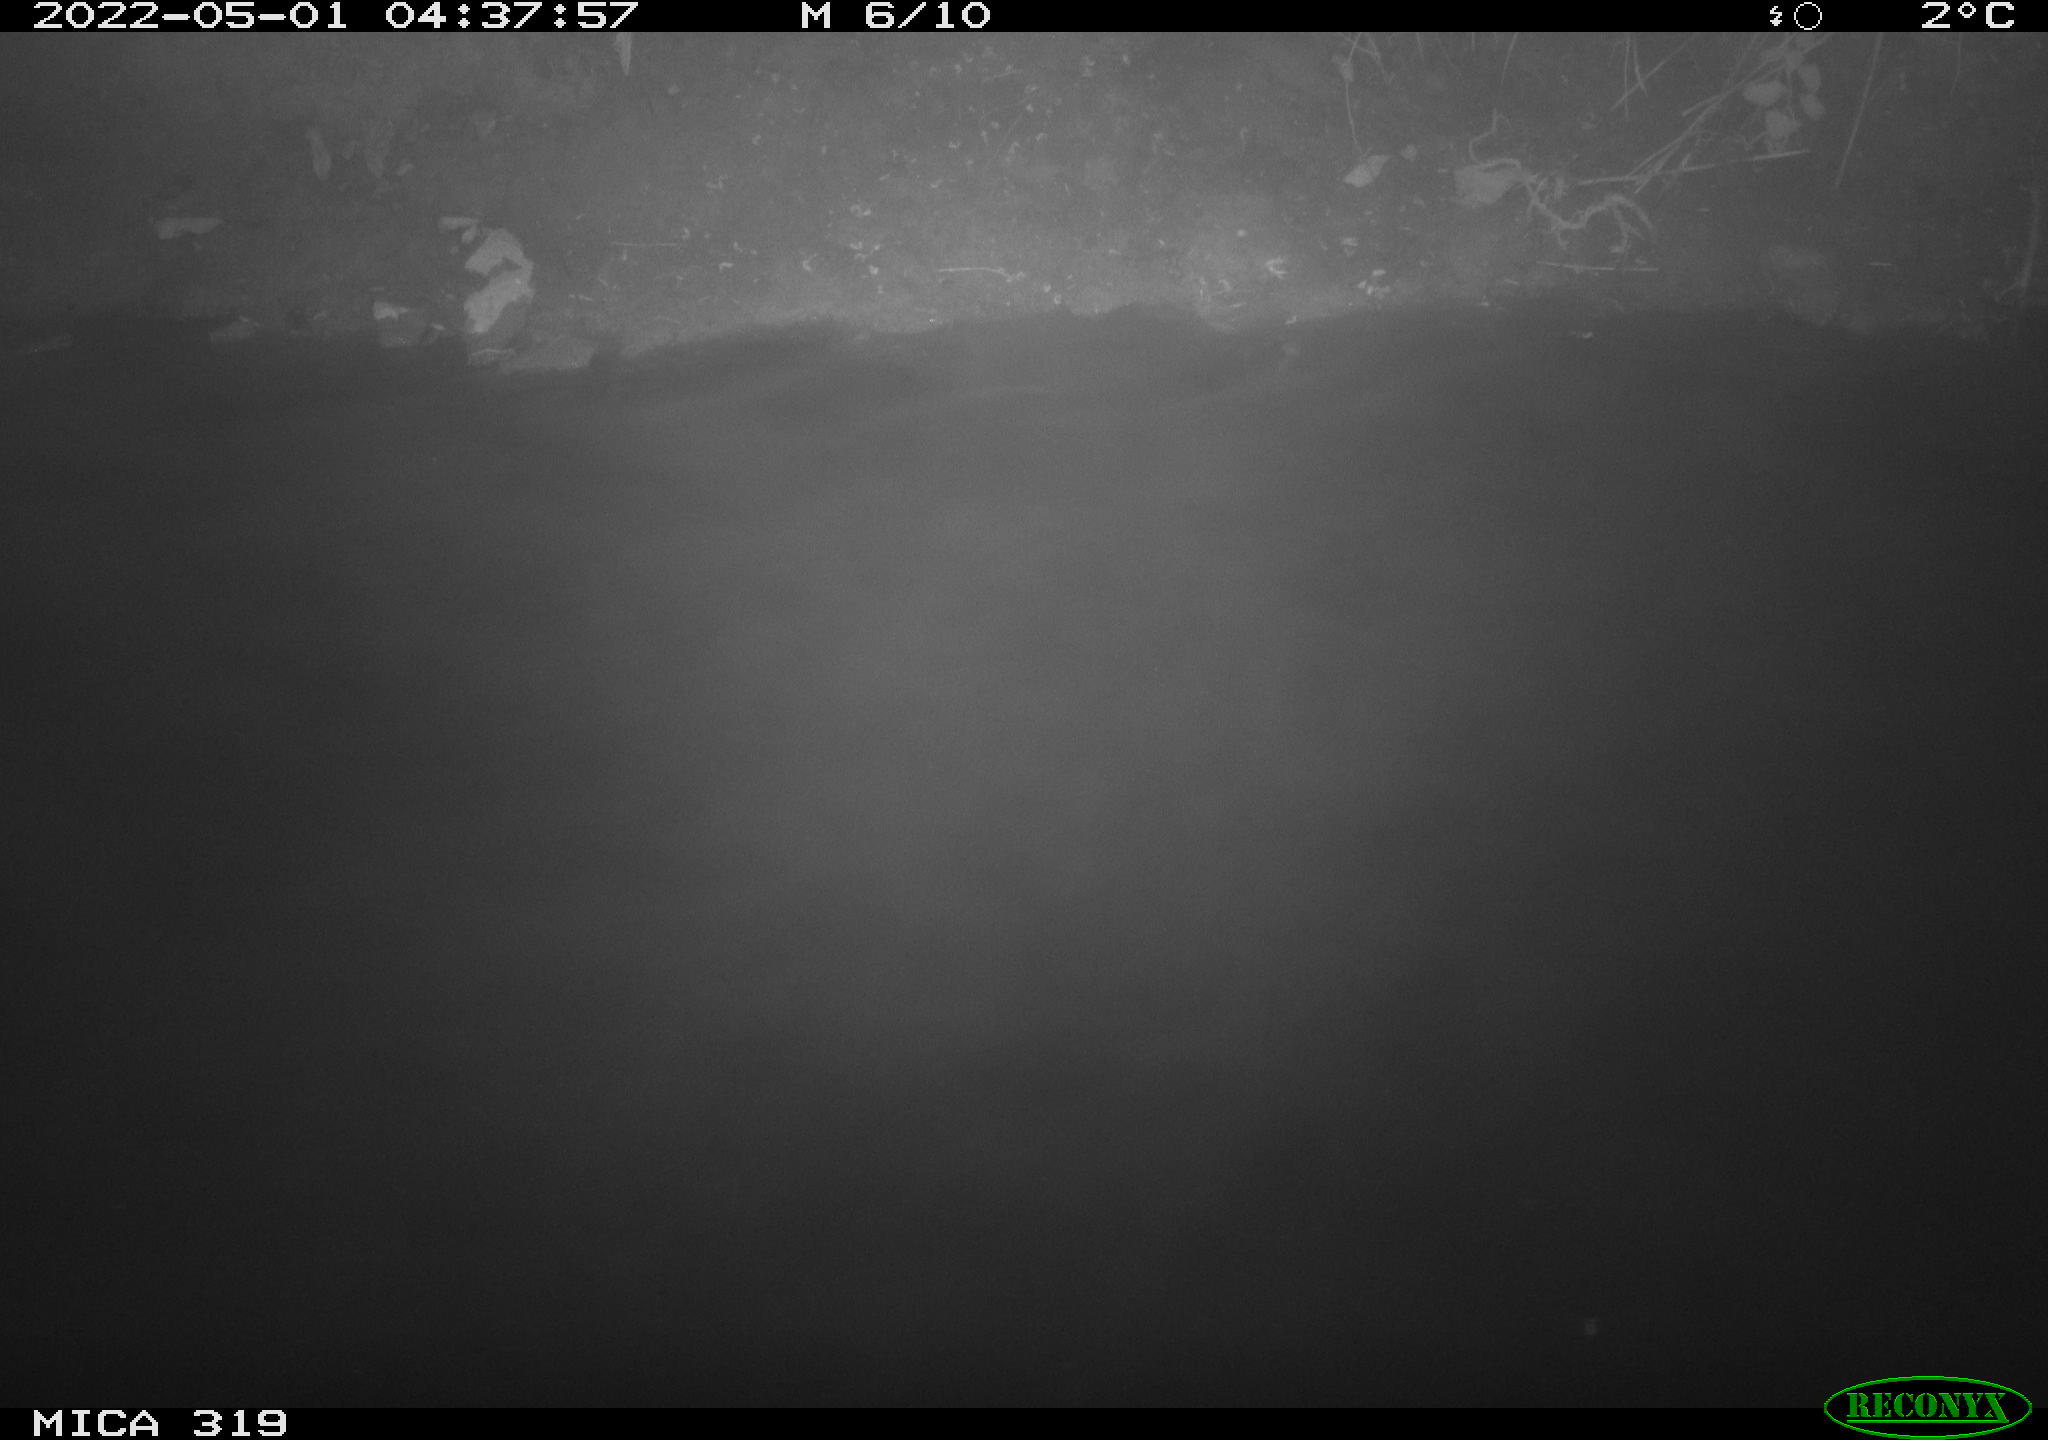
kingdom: Animalia
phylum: Chordata
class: Aves
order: Anseriformes
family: Anatidae
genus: Anas
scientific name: Anas platyrhynchos
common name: Mallard
